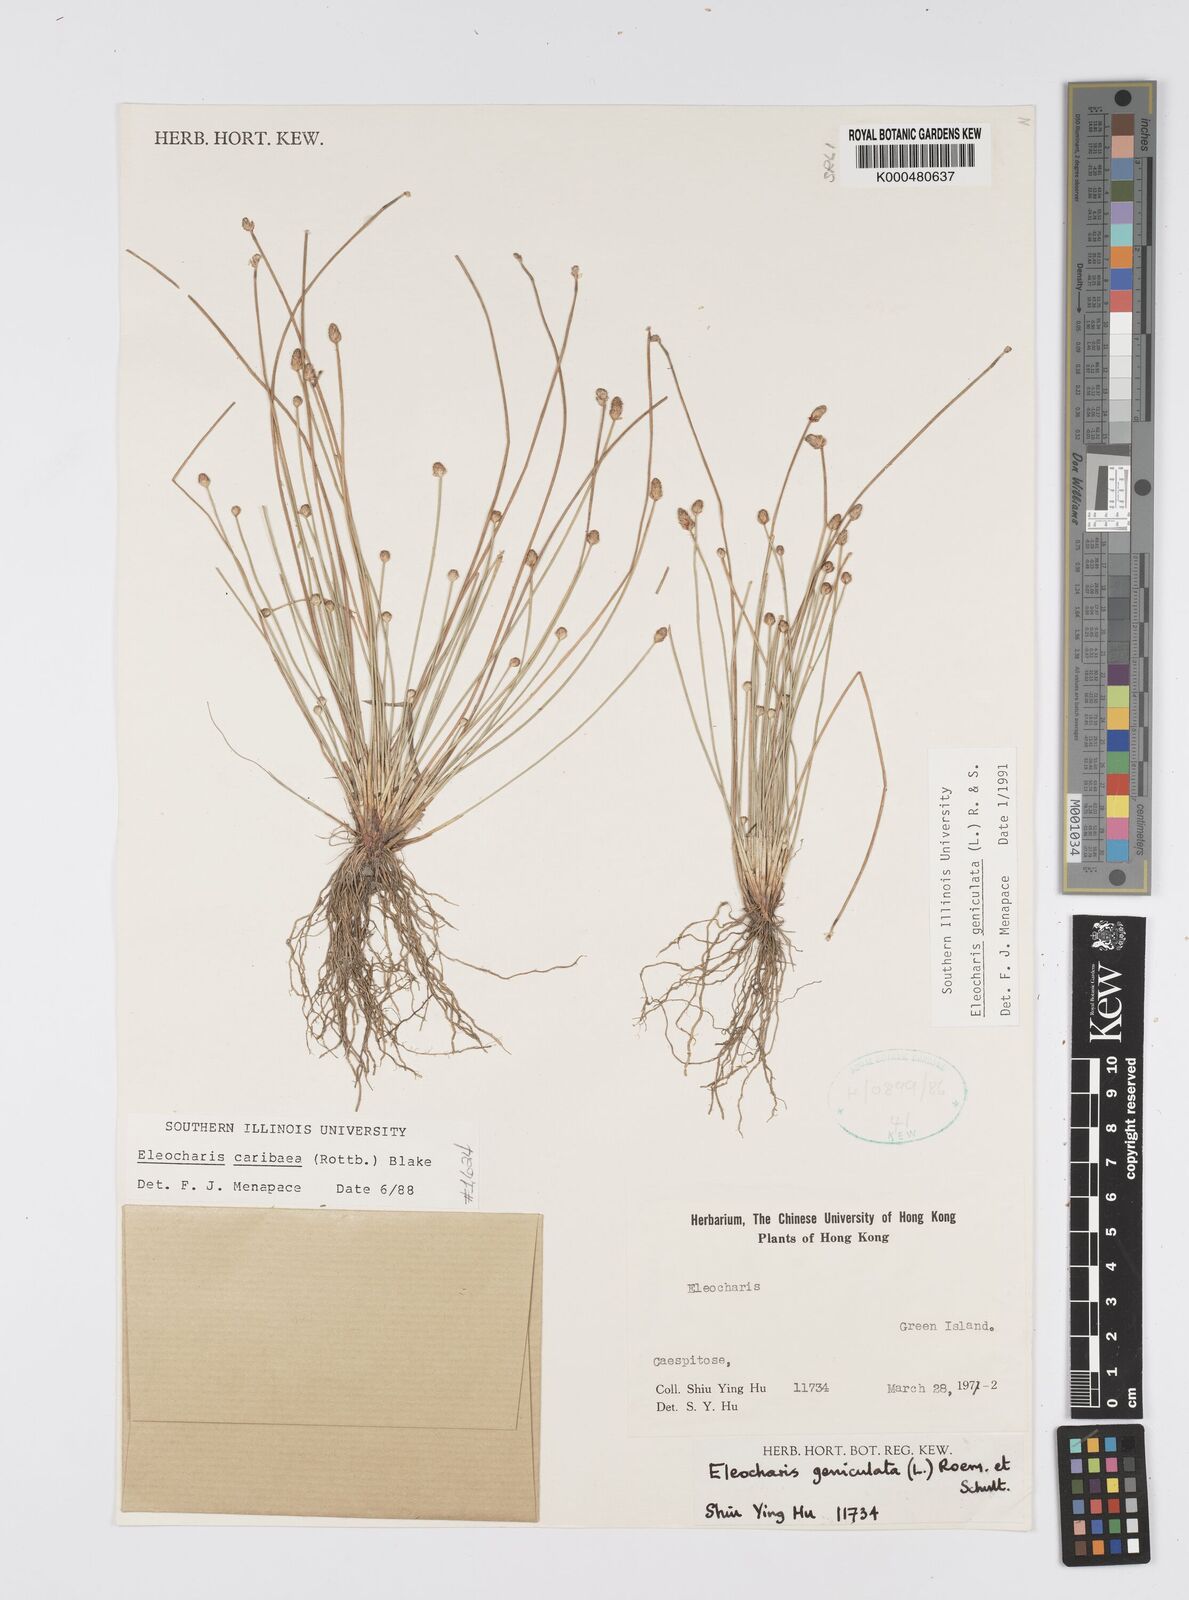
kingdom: Plantae
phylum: Tracheophyta
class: Liliopsida
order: Poales
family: Cyperaceae
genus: Eleocharis
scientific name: Eleocharis geniculata
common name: Canada spikesedge
